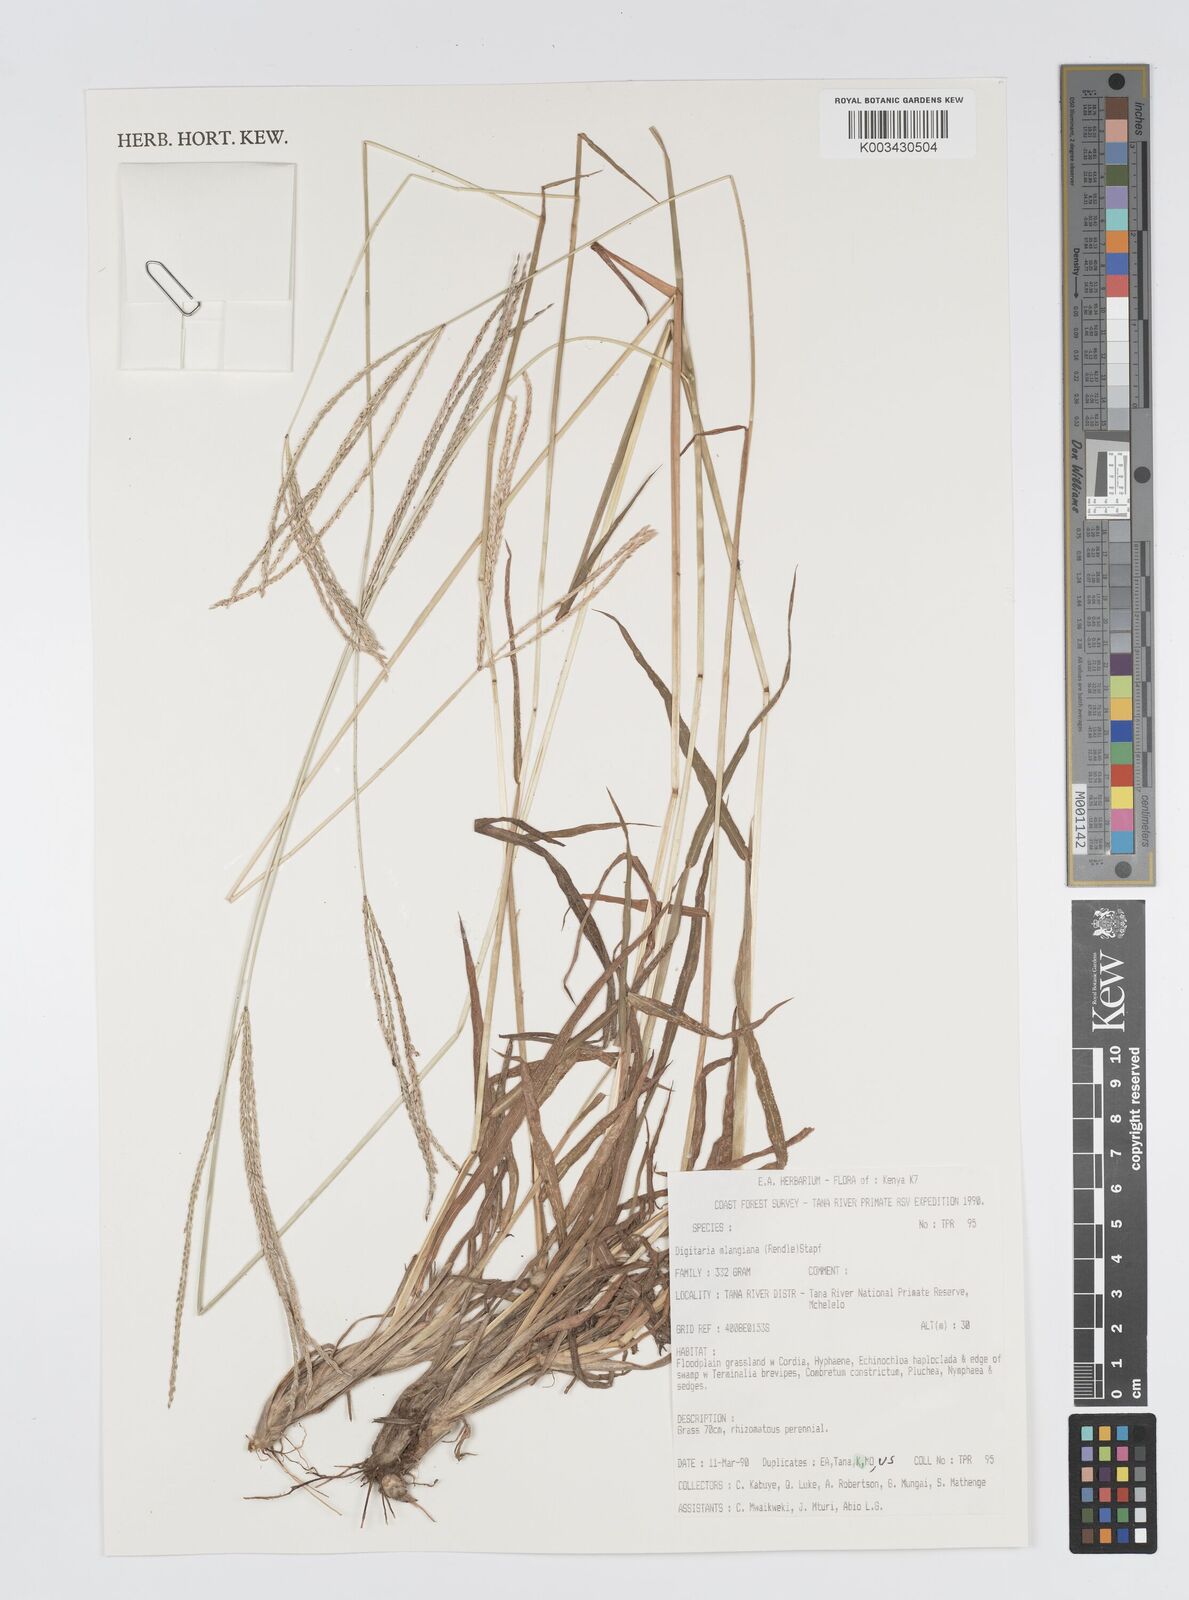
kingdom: Plantae
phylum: Tracheophyta
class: Liliopsida
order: Poales
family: Poaceae
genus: Digitaria
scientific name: Digitaria milanjiana
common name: Madagascar crabgrass
